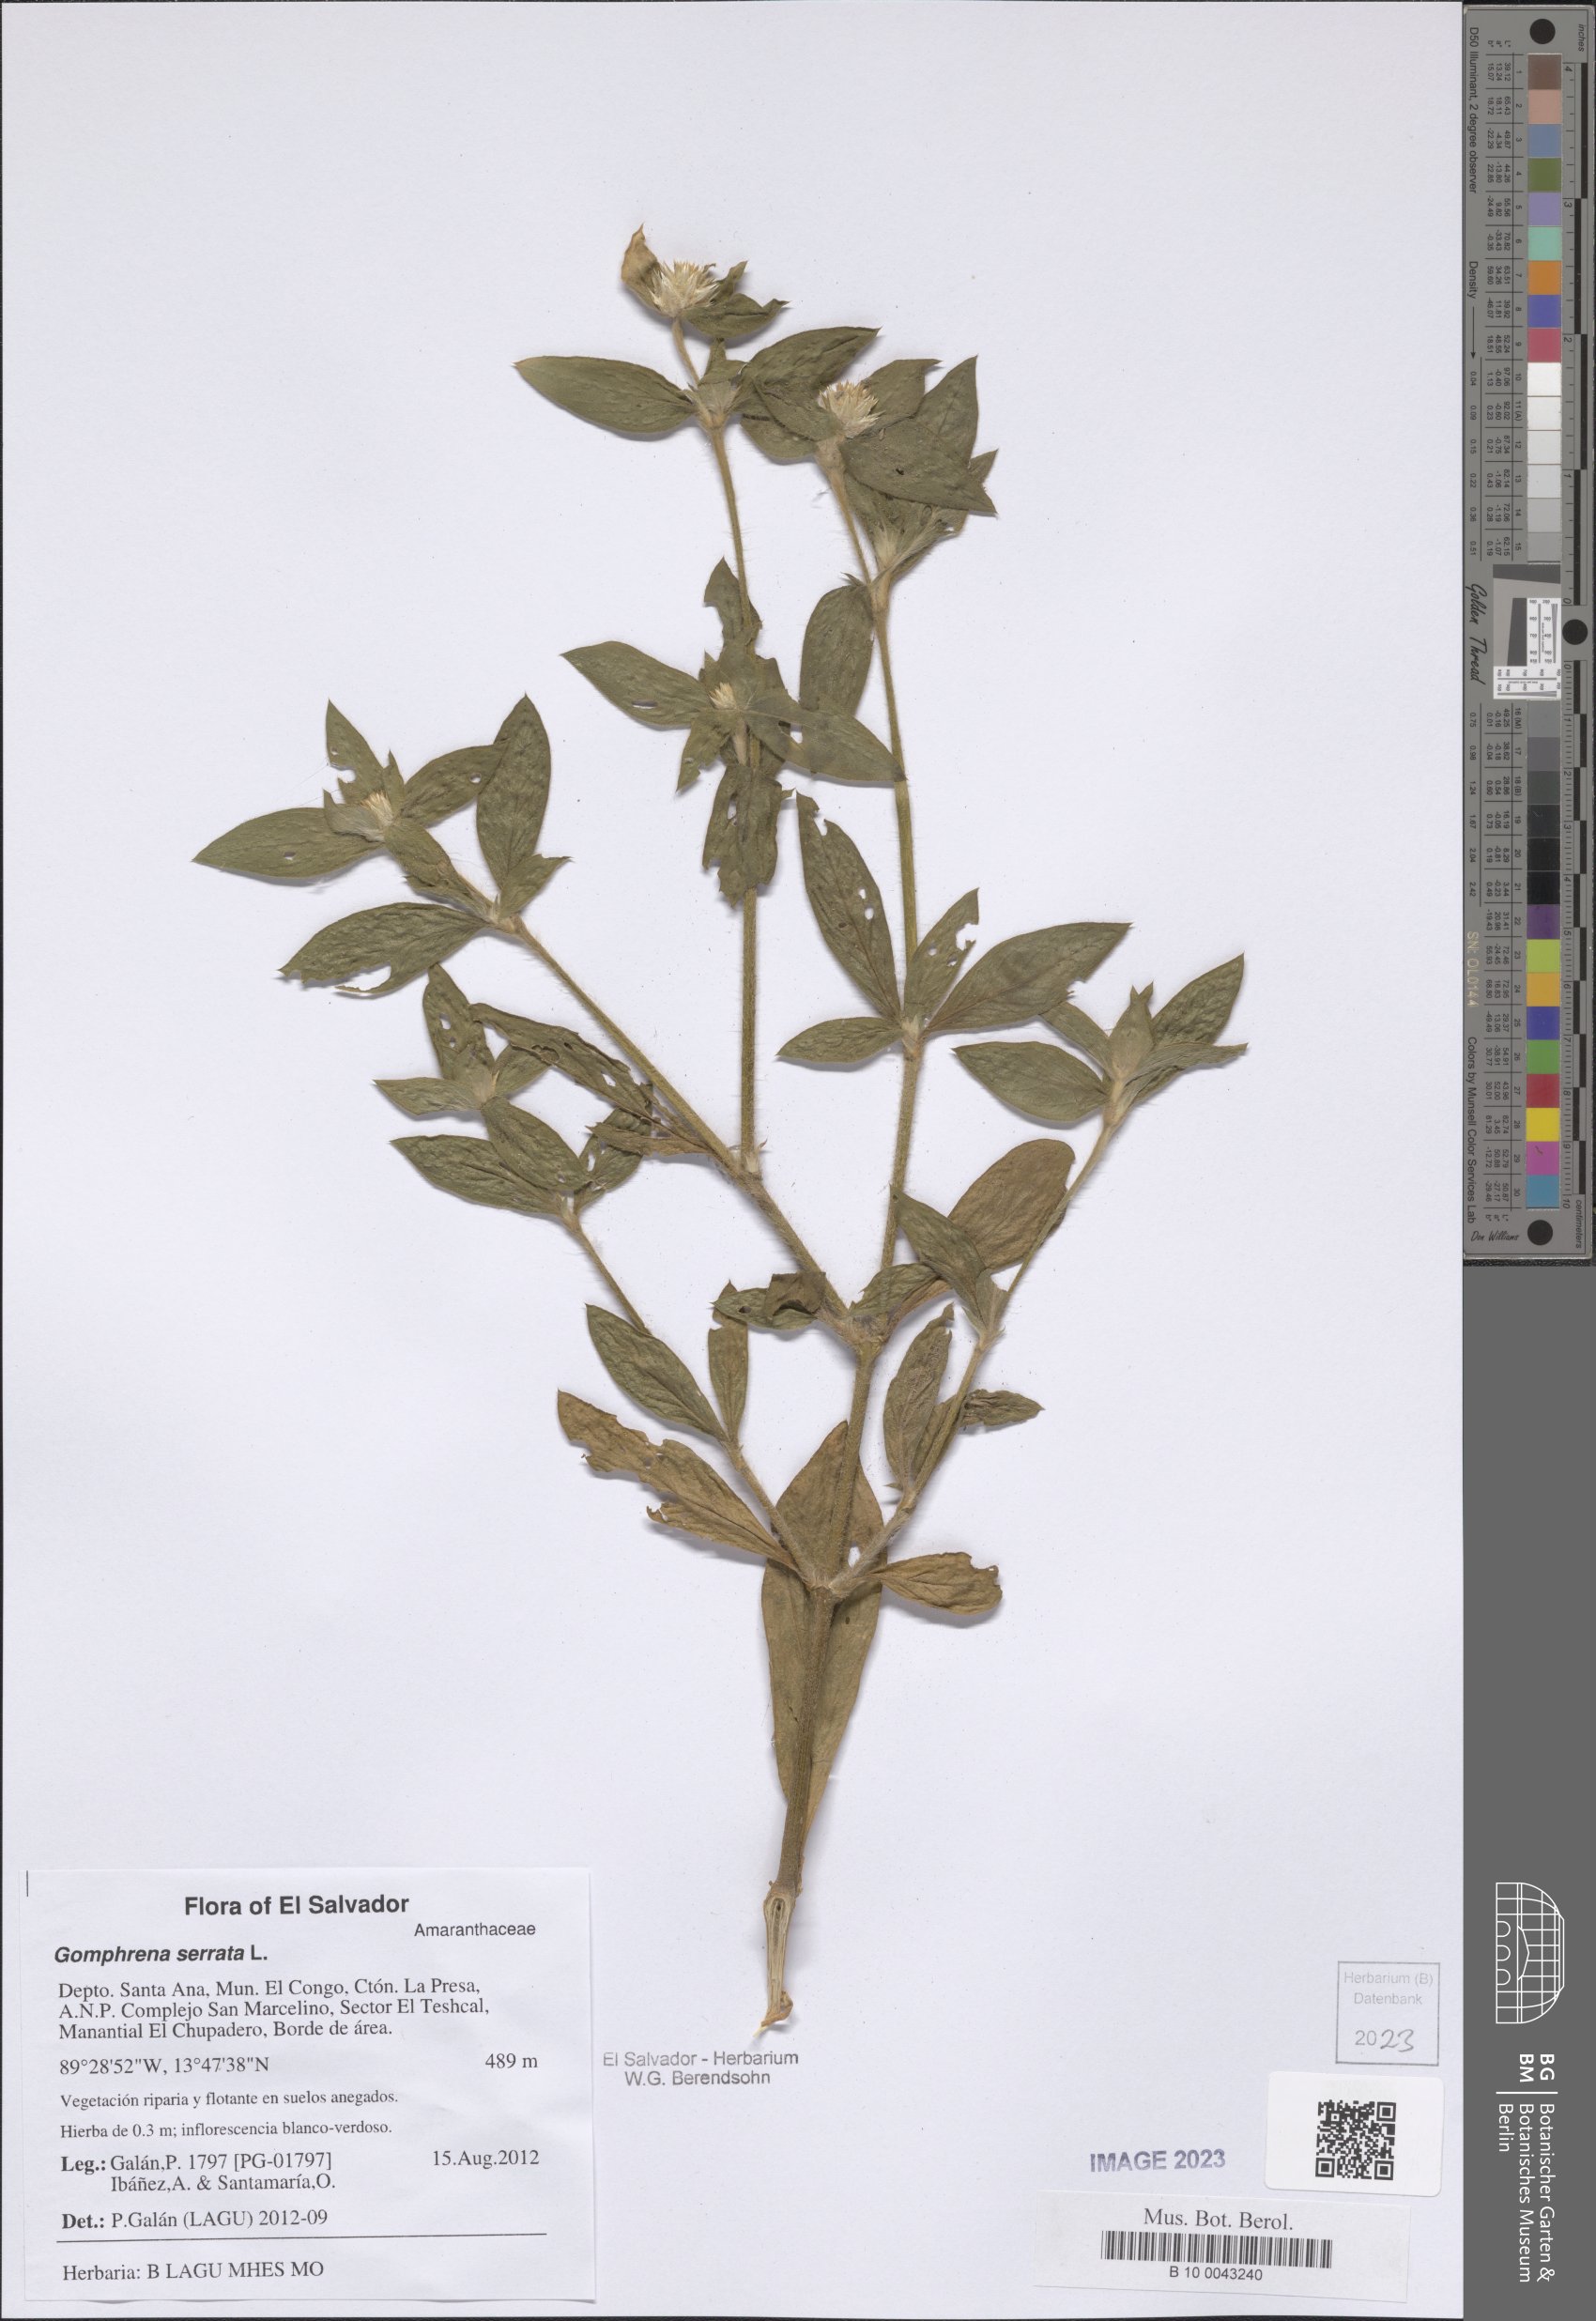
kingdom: Plantae
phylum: Tracheophyta
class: Magnoliopsida
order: Caryophyllales
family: Amaranthaceae
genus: Gomphrena
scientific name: Gomphrena serrata
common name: Arrasa con todo
